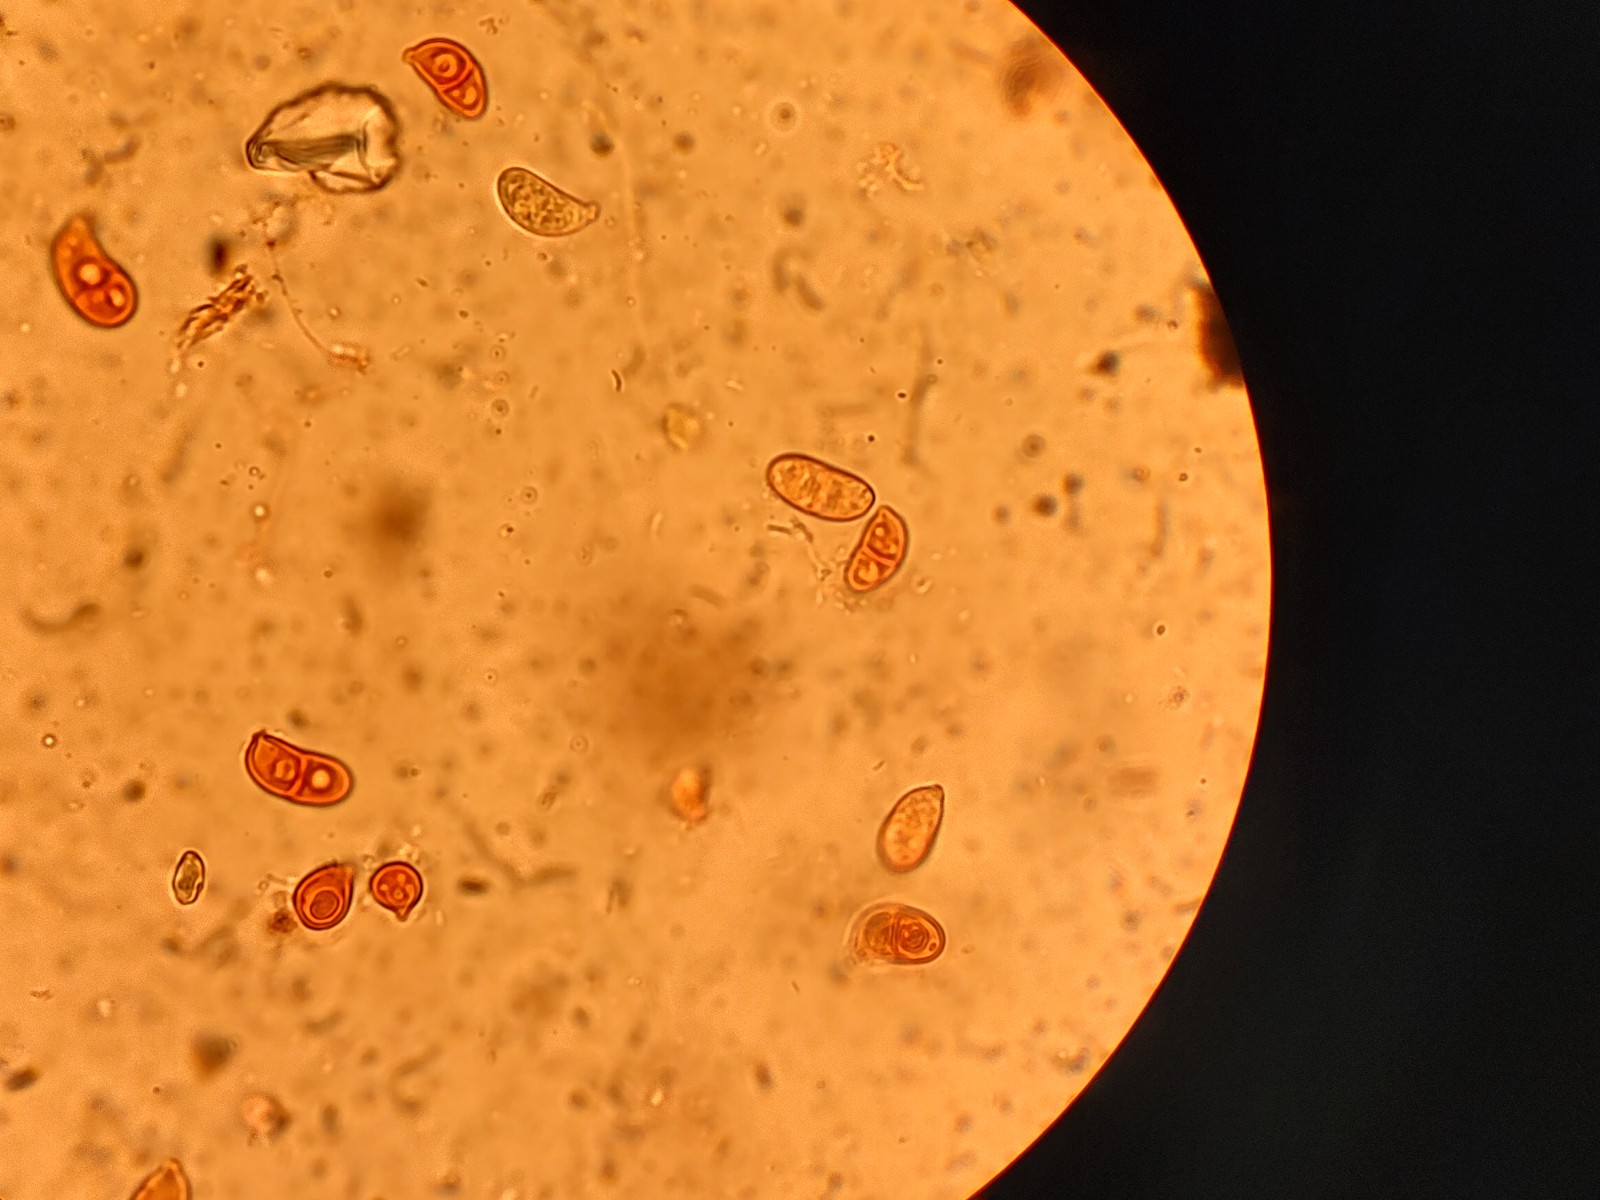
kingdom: Fungi
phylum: Basidiomycota
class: Dacrymycetes
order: Dacrymycetales
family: Dacrymycetaceae
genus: Dacrymyces
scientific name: Dacrymyces minor
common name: lille tåresvamp
